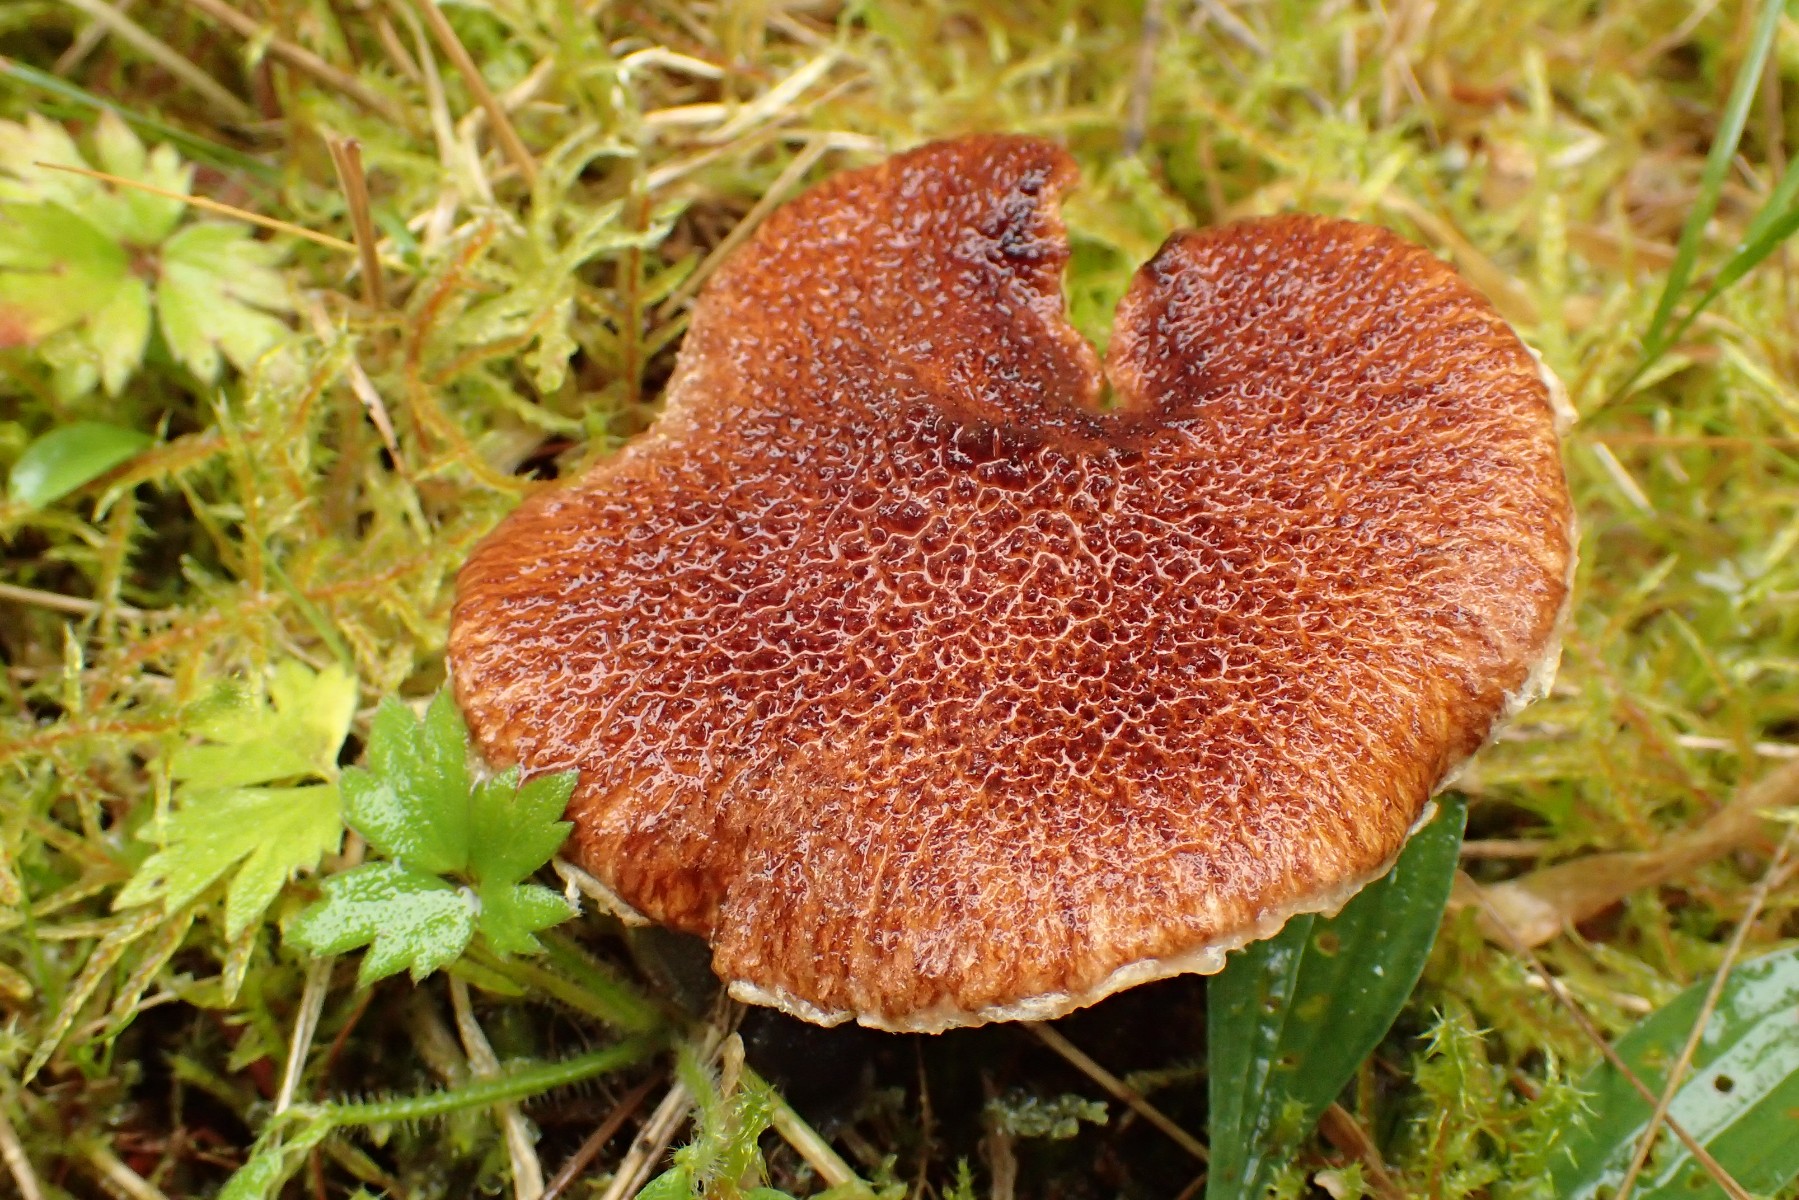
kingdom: Fungi
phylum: Basidiomycota
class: Agaricomycetes
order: Boletales
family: Suillaceae
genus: Suillus
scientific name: Suillus cavipes
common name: hulstokket slimrørhat
